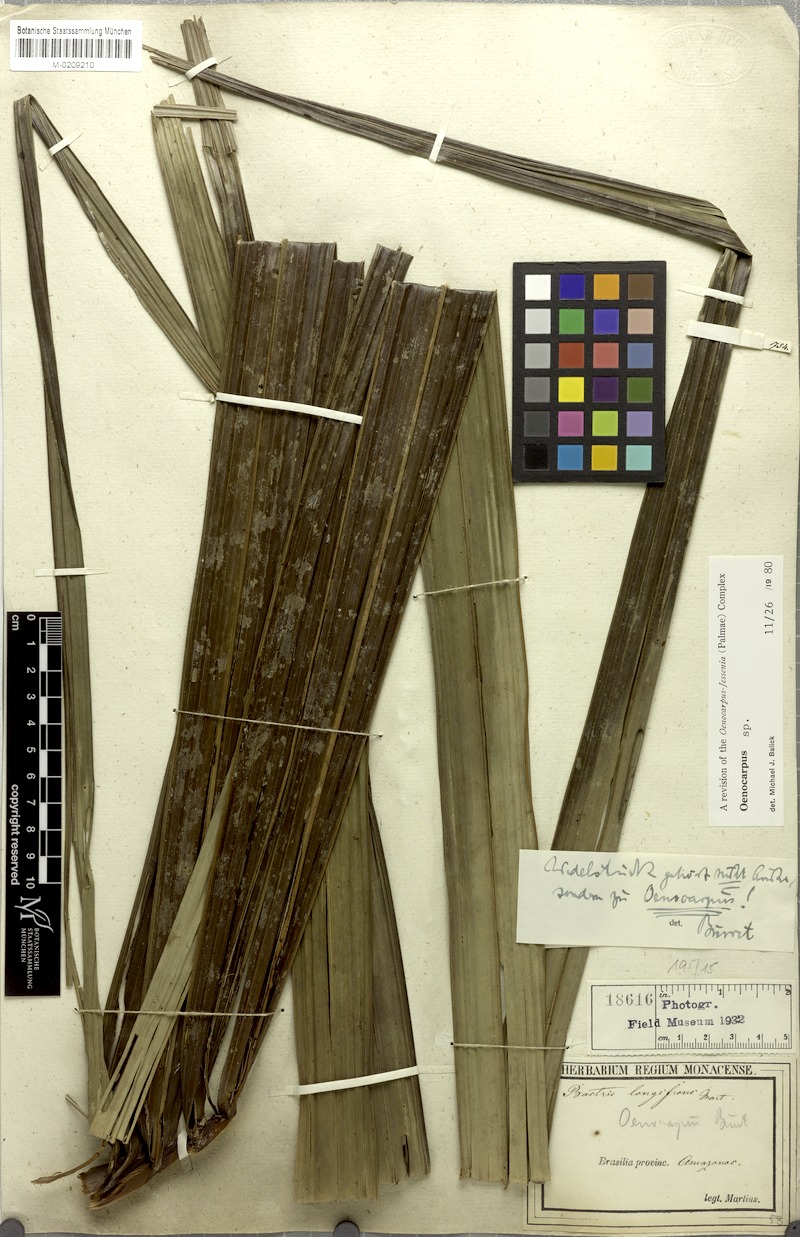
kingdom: Plantae
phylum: Tracheophyta
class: Liliopsida
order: Arecales
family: Arecaceae
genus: Oenocarpus
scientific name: Oenocarpus
